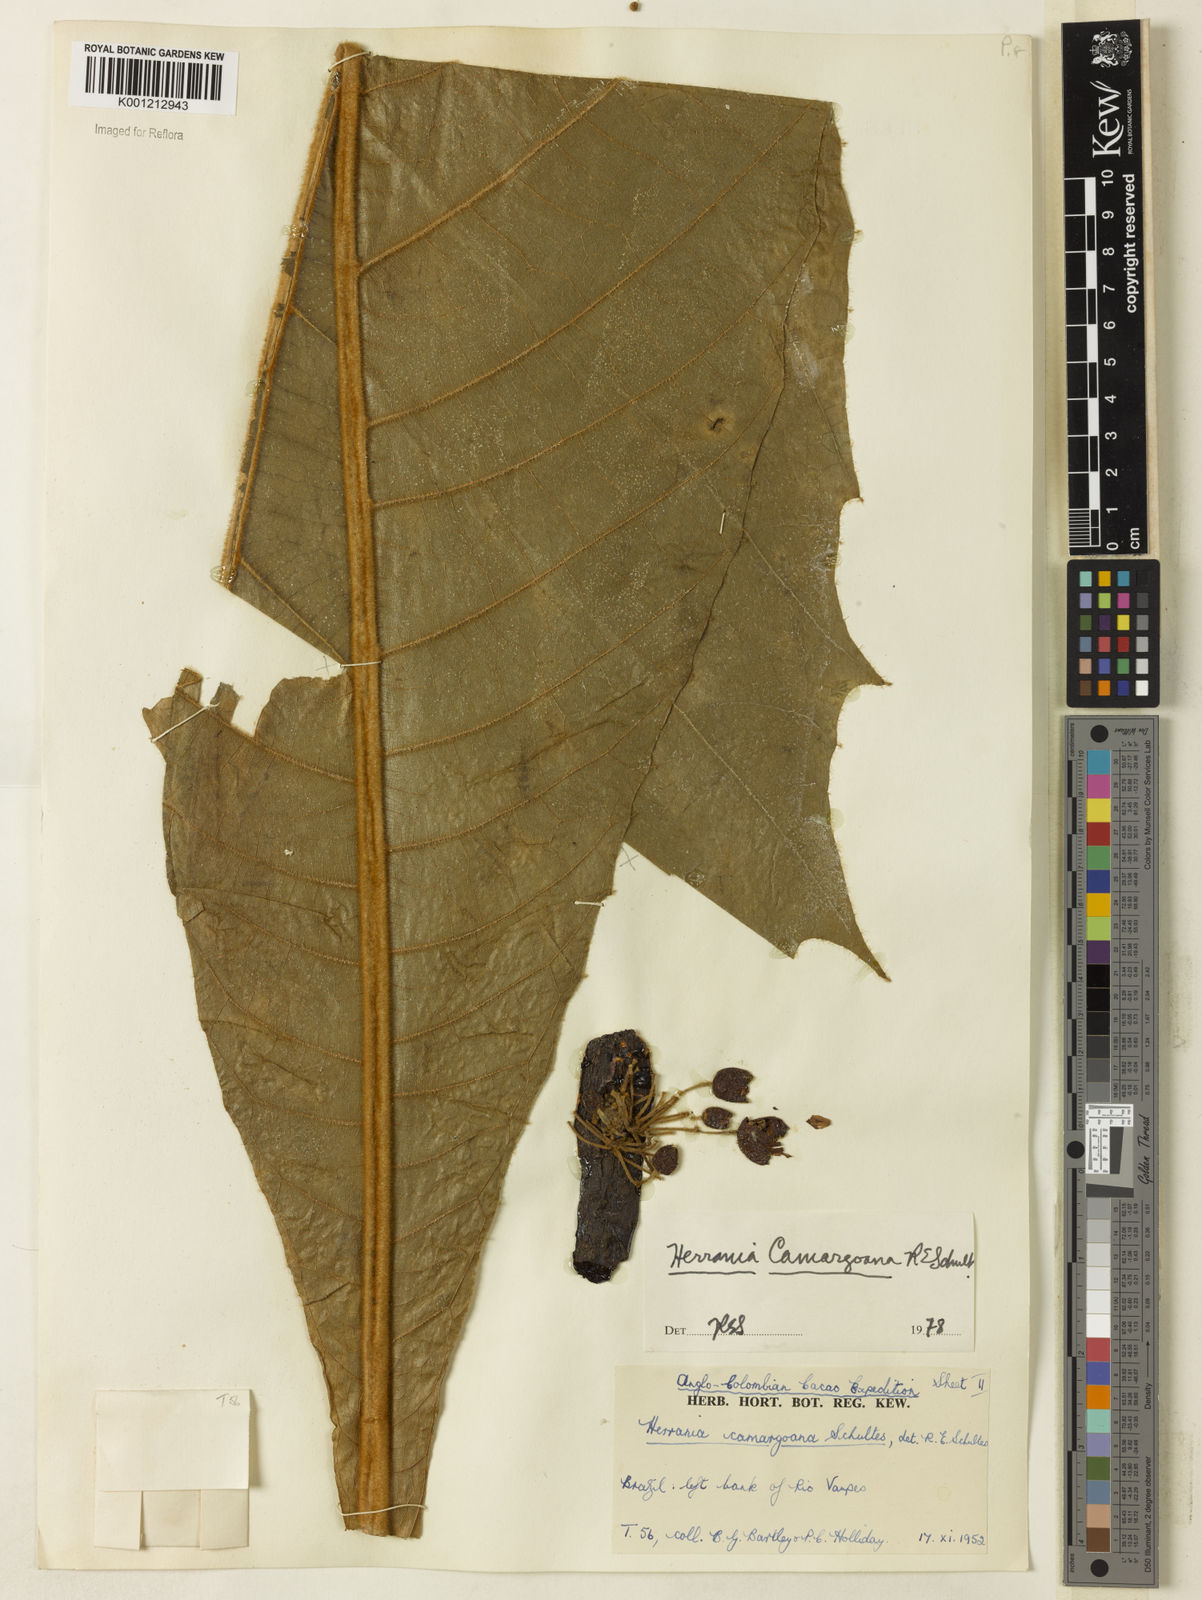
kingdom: Plantae
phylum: Tracheophyta
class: Magnoliopsida
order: Malvales
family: Malvaceae
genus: Herrania
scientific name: Herrania camargoana
